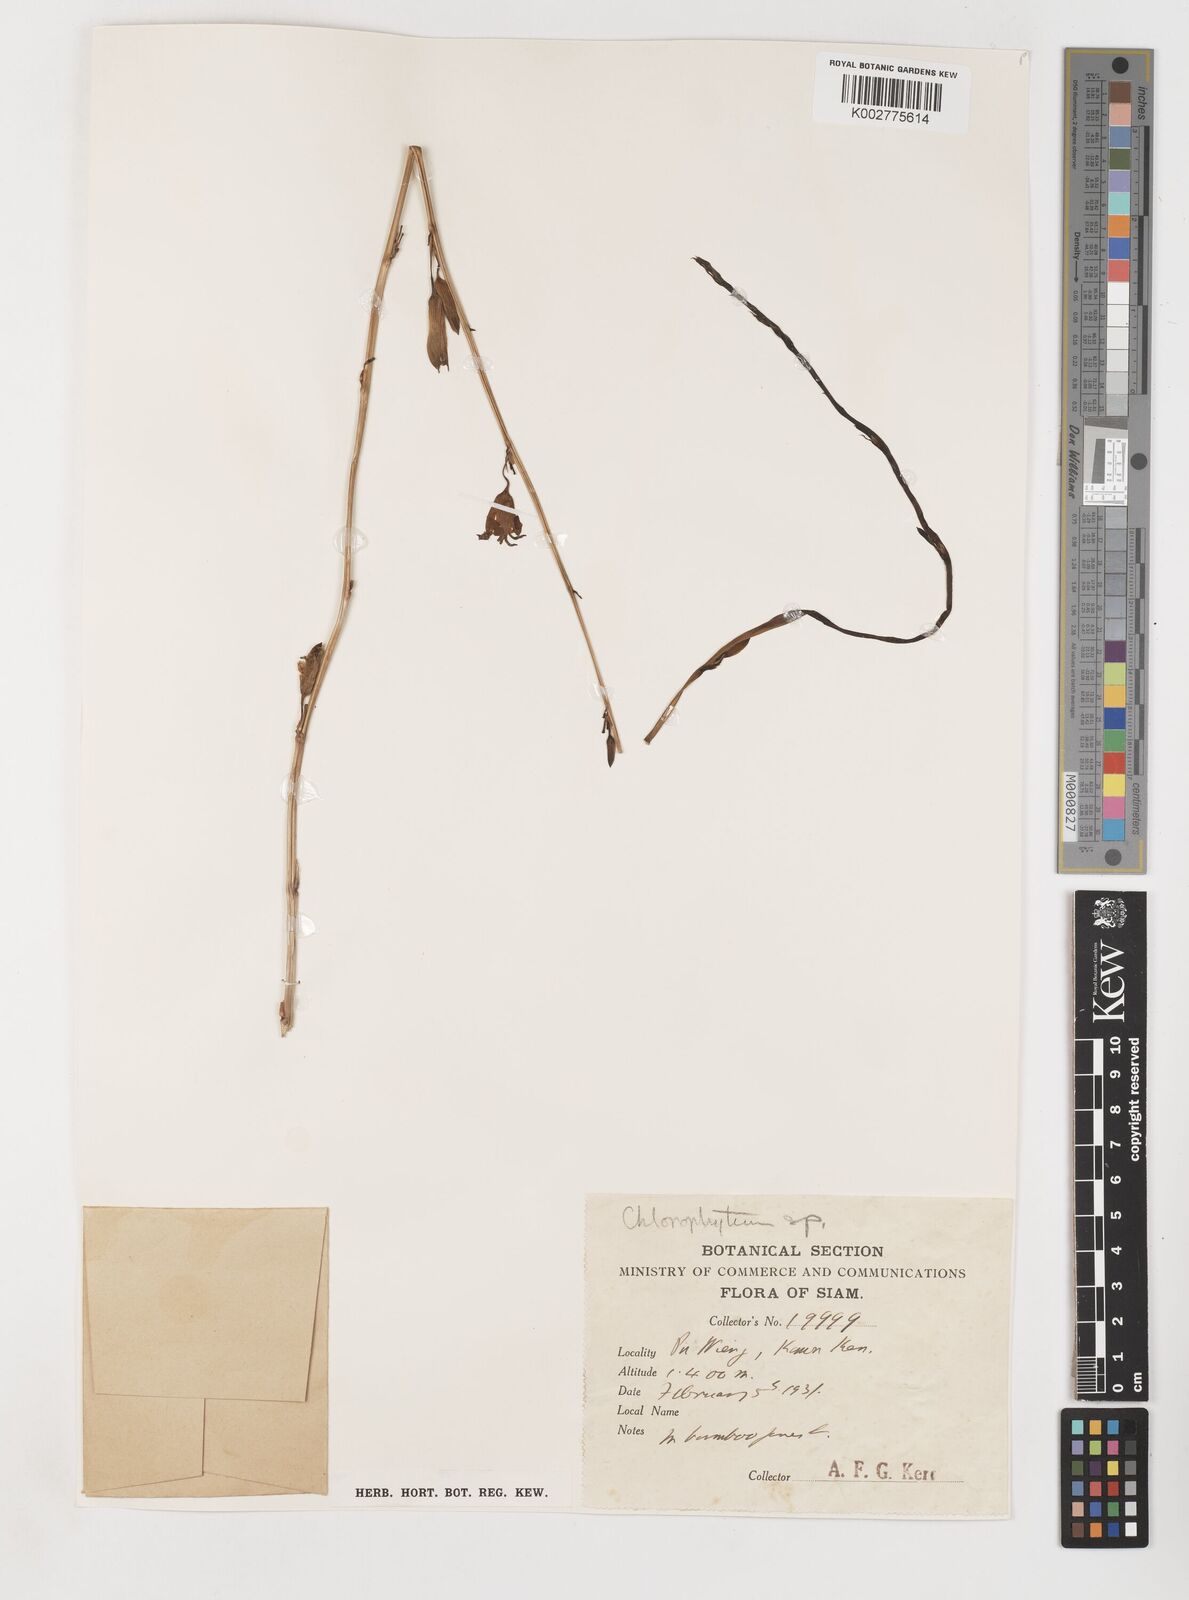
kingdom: Plantae
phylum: Tracheophyta
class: Liliopsida
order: Pandanales
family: Stemonaceae
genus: Stemona
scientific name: Stemona aphylla
